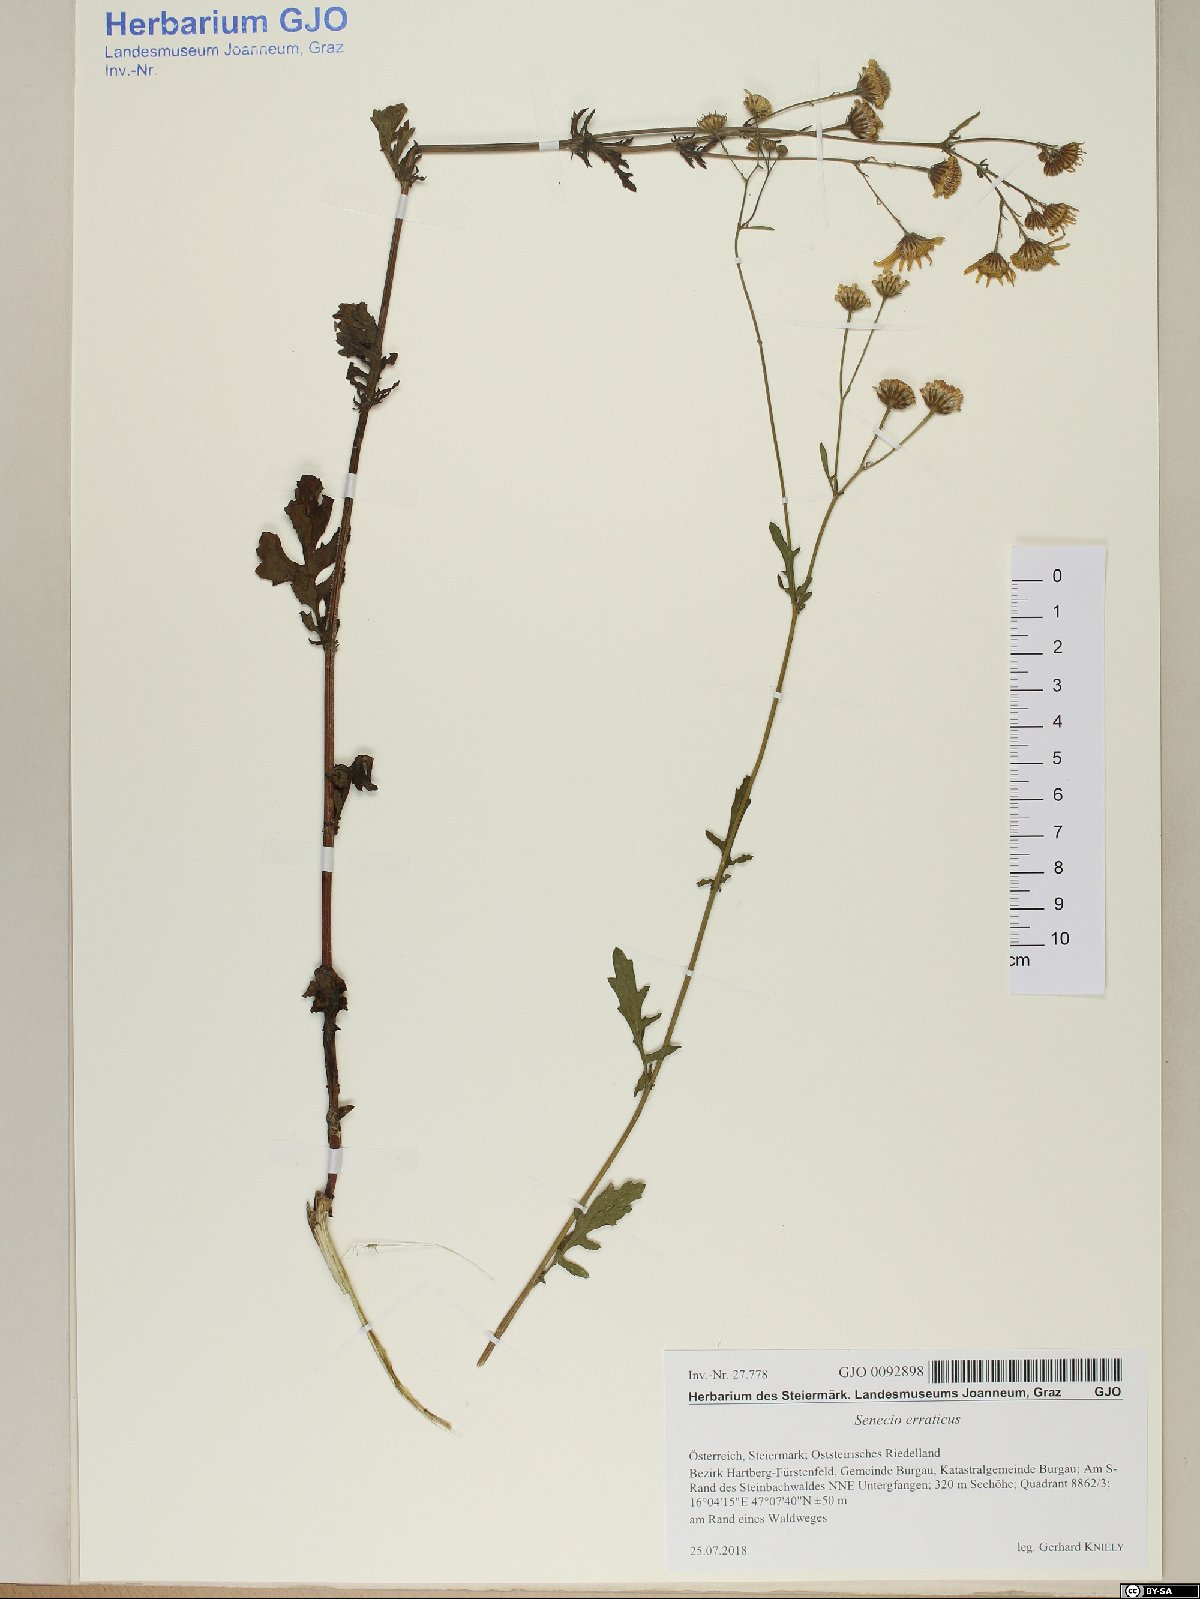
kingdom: Plantae
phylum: Tracheophyta
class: Magnoliopsida
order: Asterales
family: Asteraceae
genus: Jacobaea
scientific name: Jacobaea erratica
